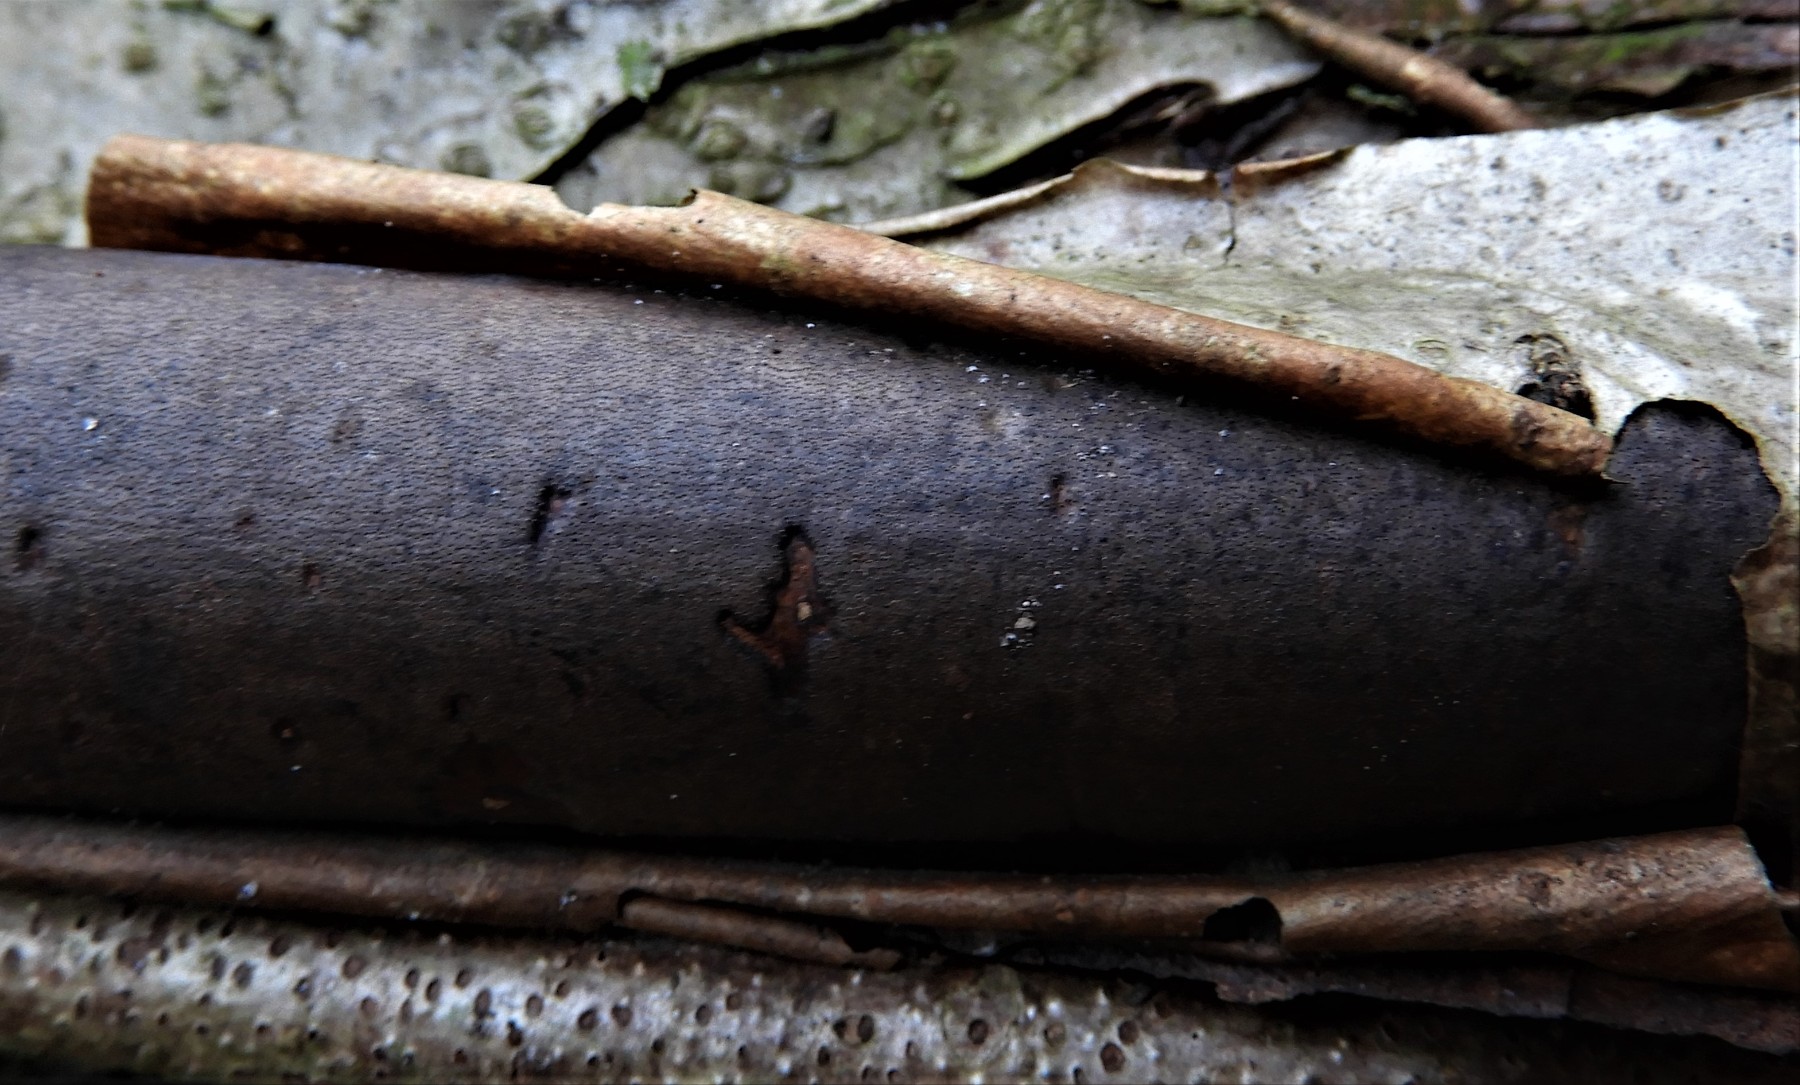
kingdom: Fungi
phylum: Ascomycota
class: Sordariomycetes
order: Xylariales
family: Diatrypaceae
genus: Diatrype
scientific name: Diatrype
